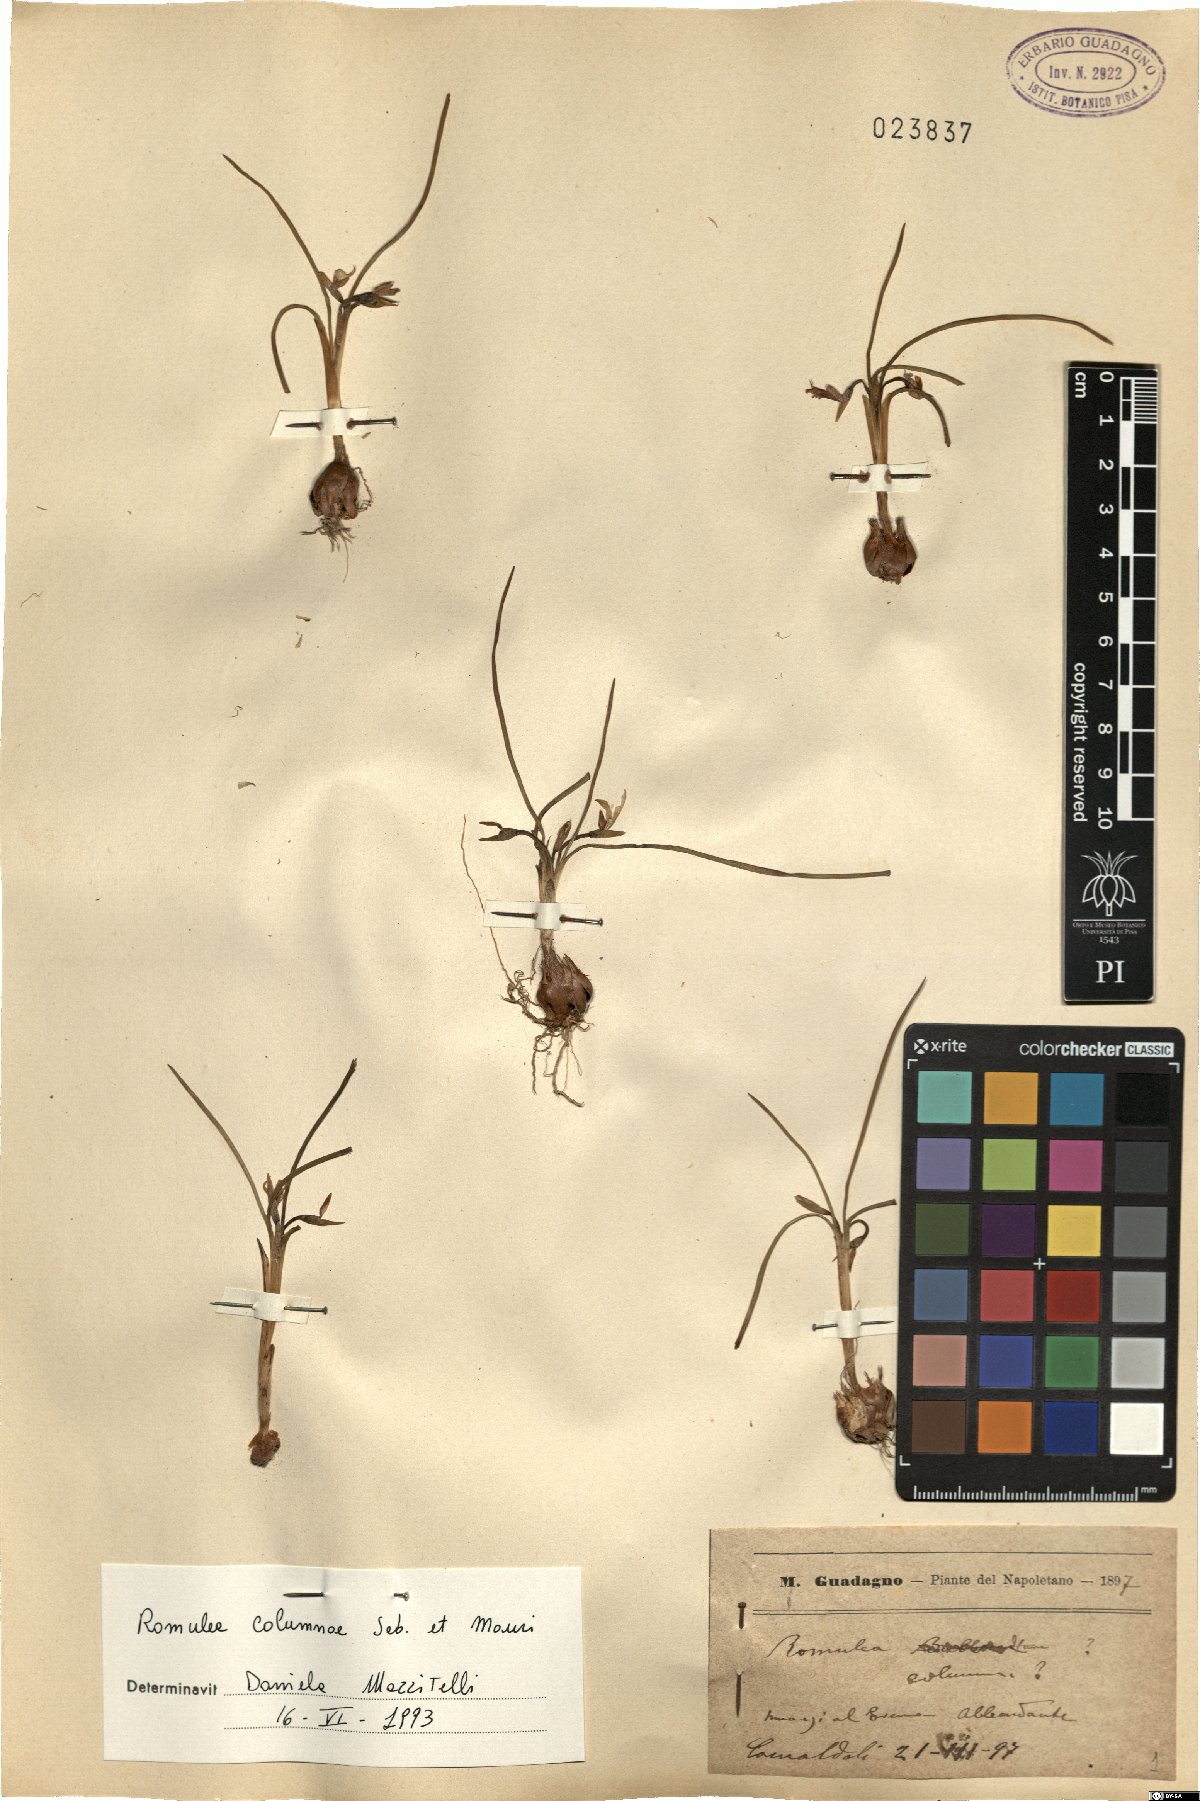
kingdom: Plantae
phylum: Tracheophyta
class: Liliopsida
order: Asparagales
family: Iridaceae
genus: Romulea
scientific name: Romulea columnae
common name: Sand-crocus
